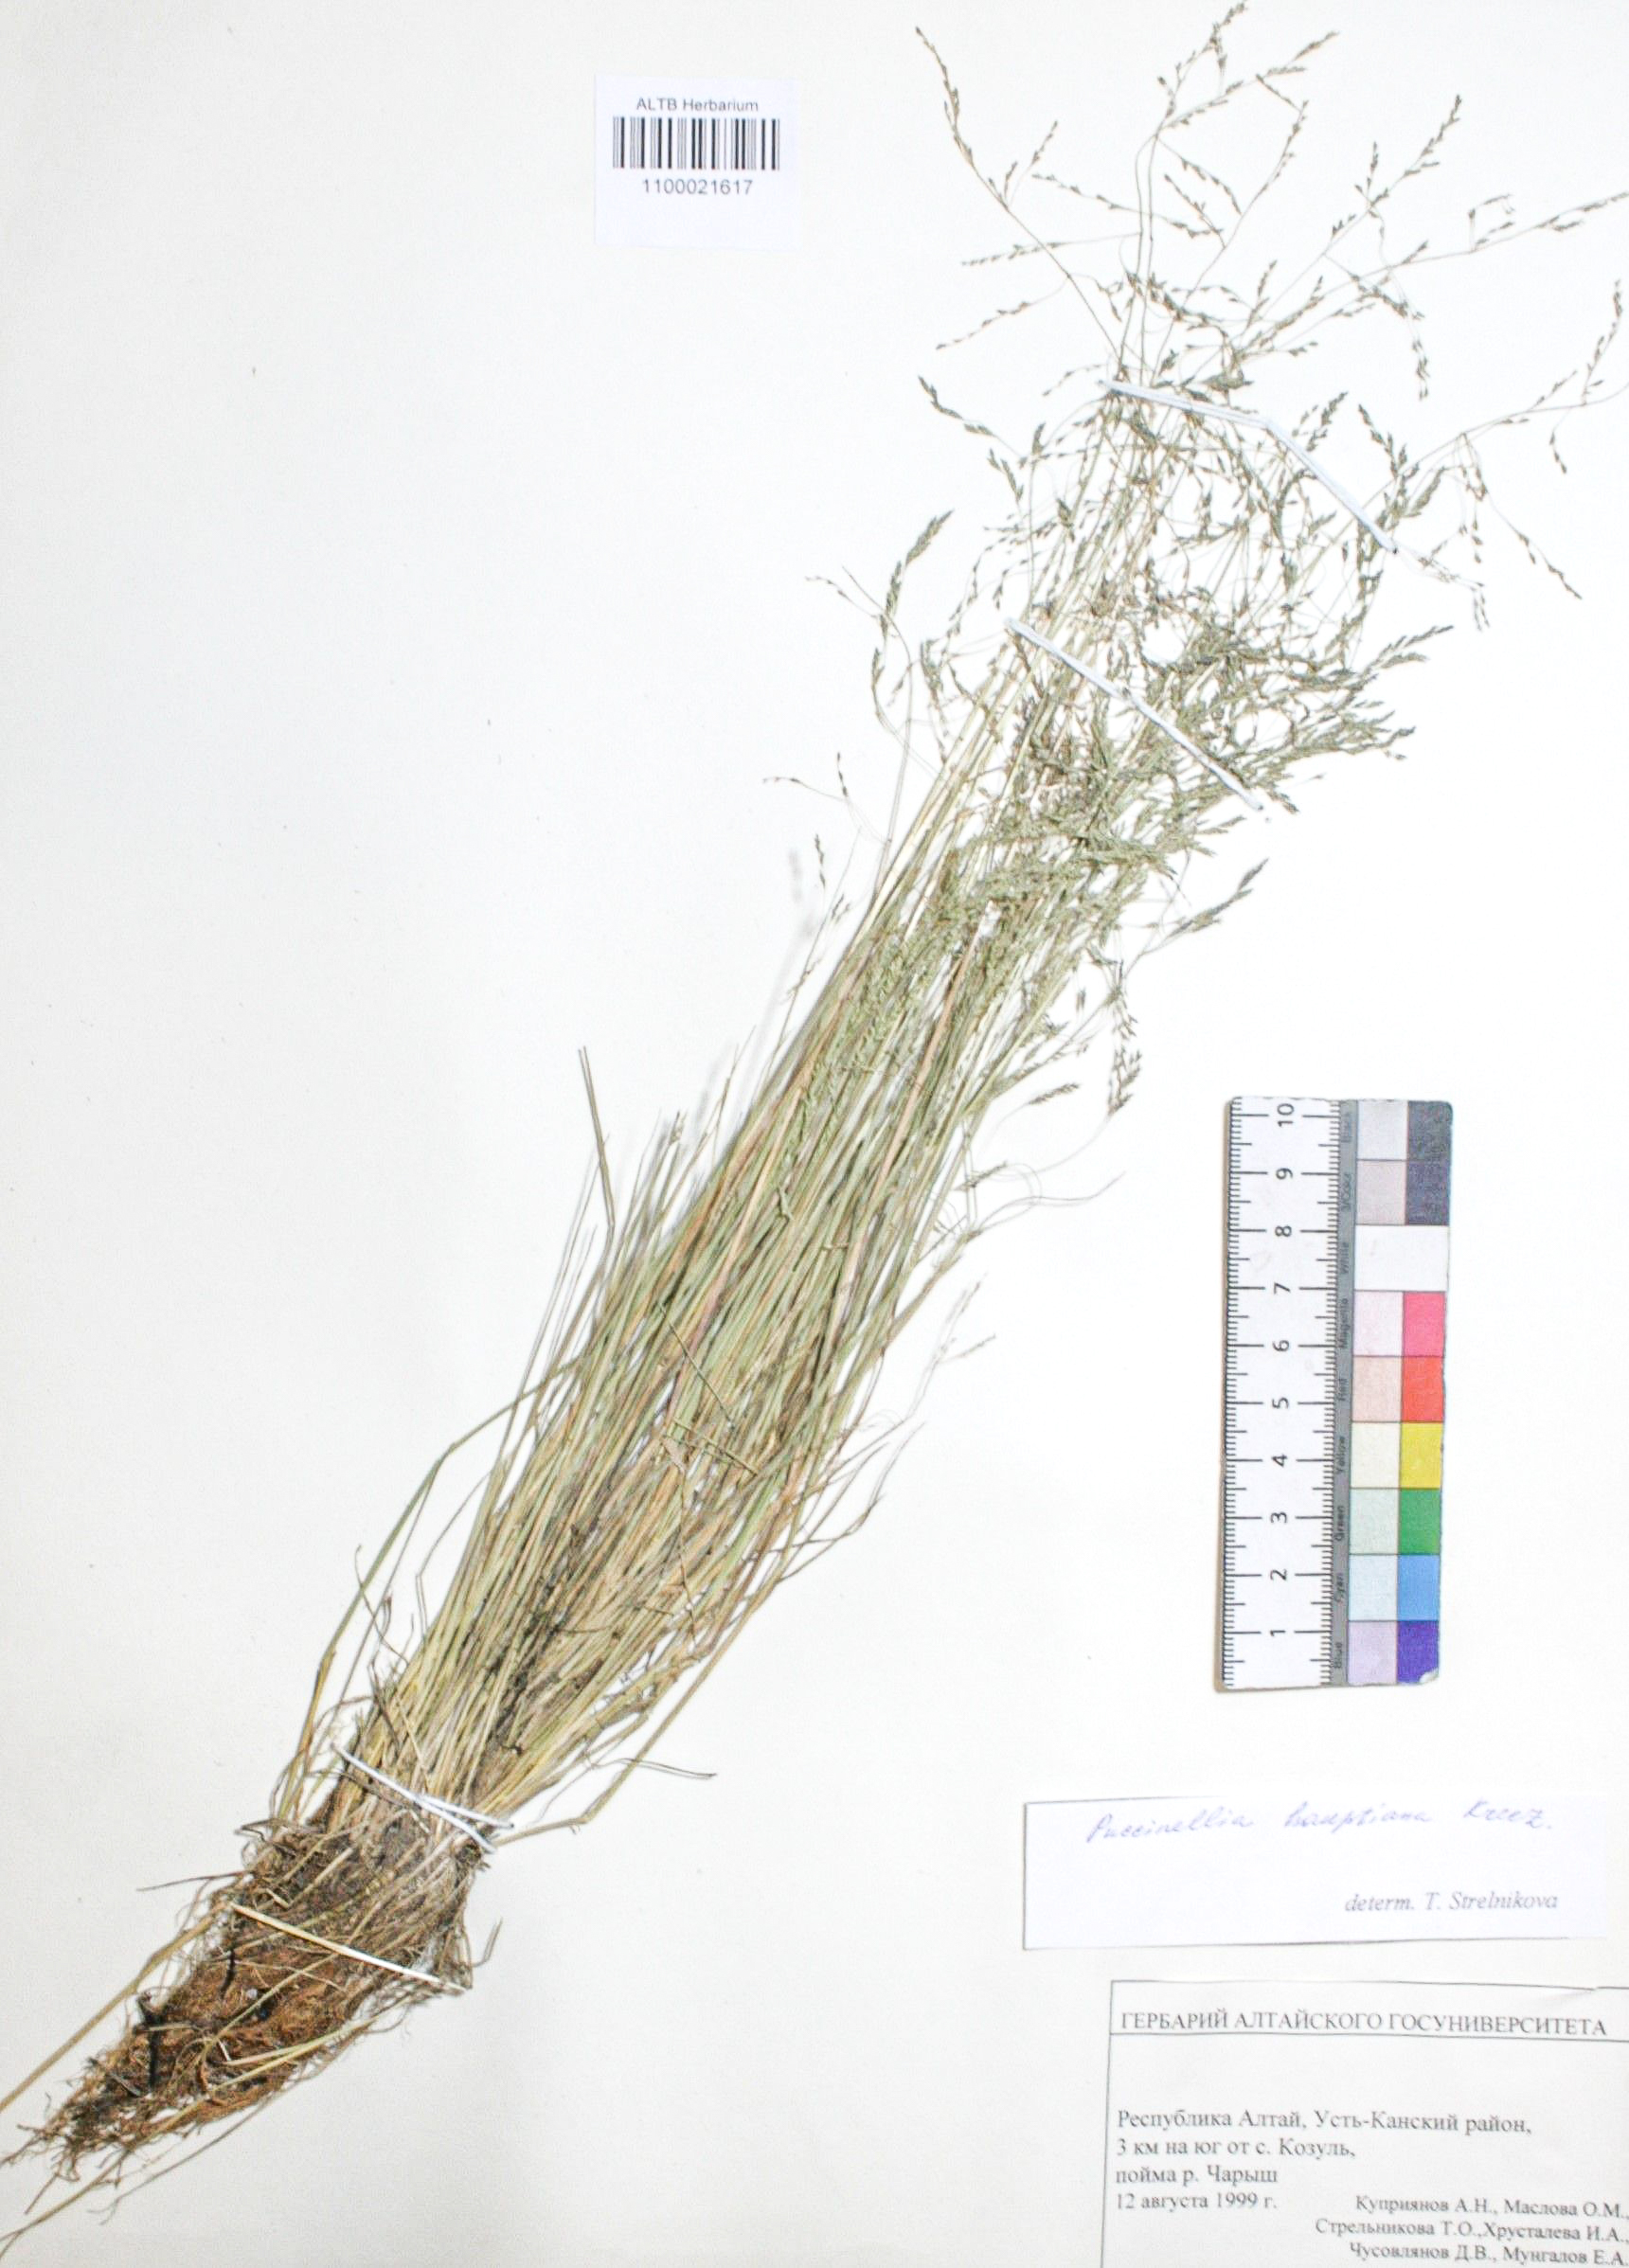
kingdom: Plantae
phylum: Tracheophyta
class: Liliopsida
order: Poales
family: Poaceae
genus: Puccinellia
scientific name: Puccinellia hauptiana
